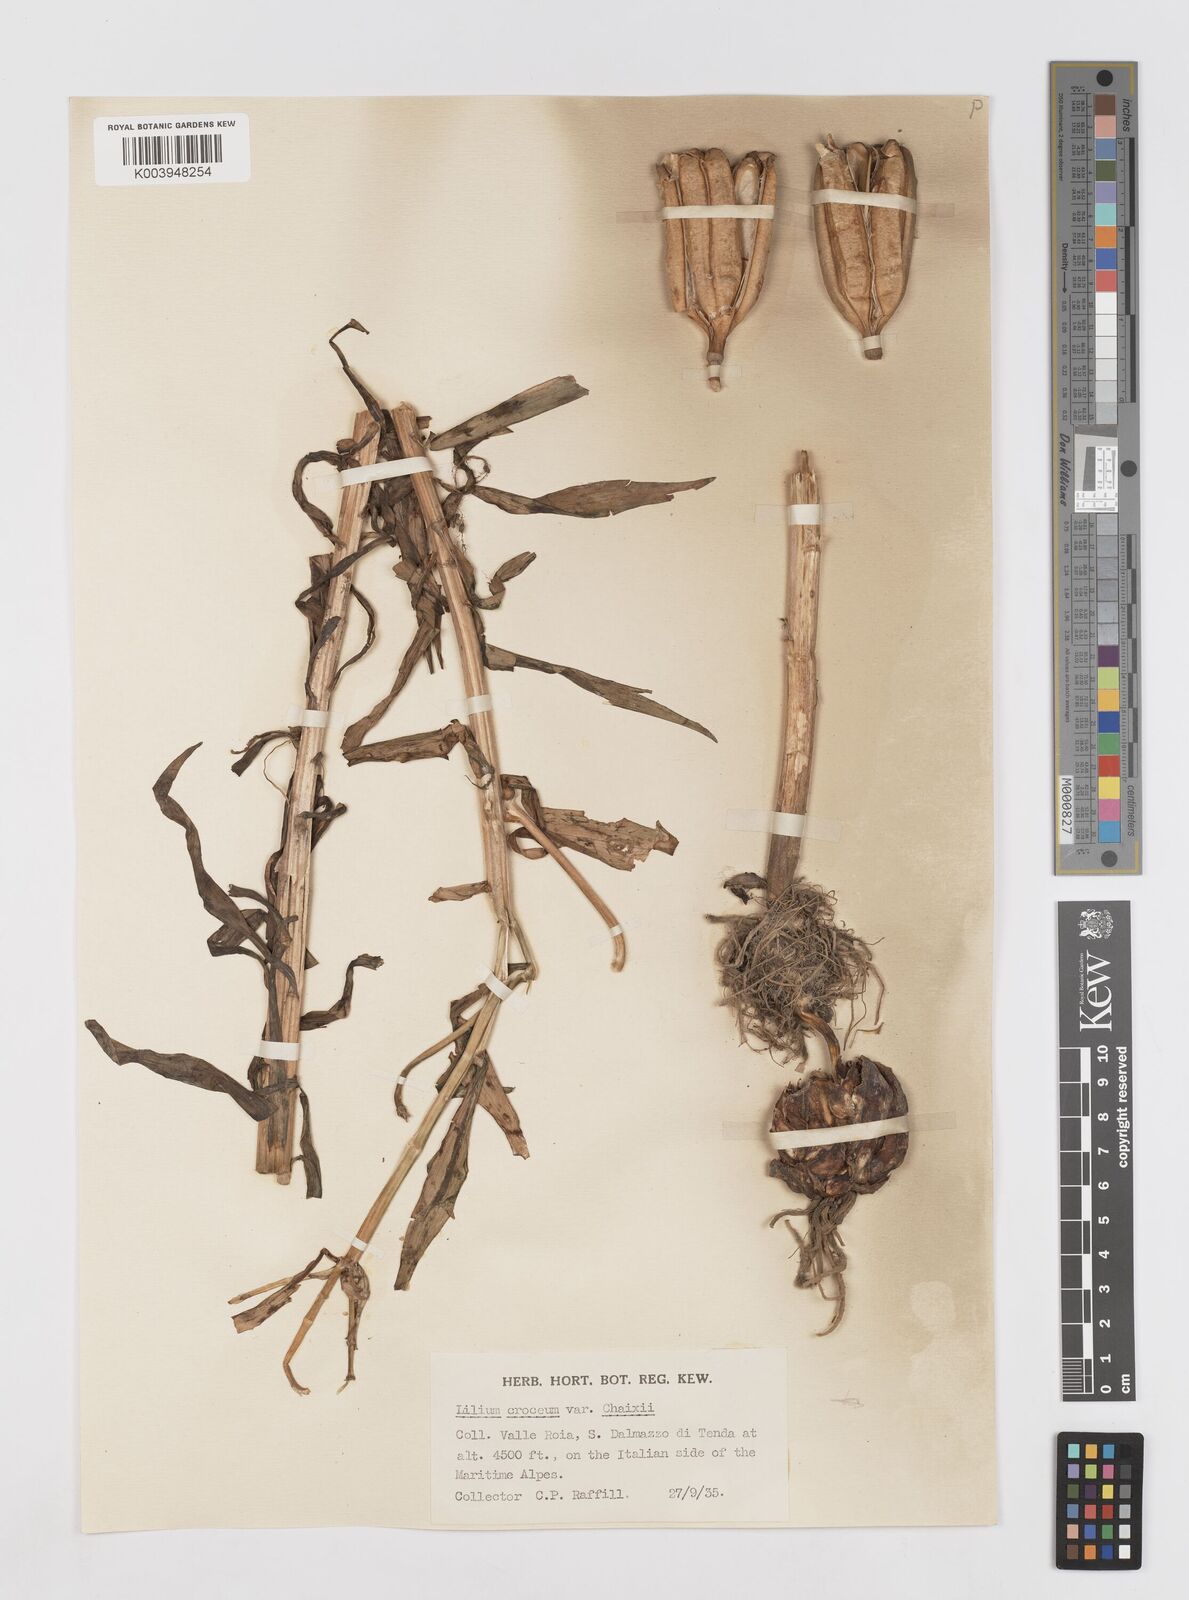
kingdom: Plantae
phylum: Tracheophyta
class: Liliopsida
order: Liliales
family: Liliaceae
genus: Lilium
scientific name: Lilium bulbiferum
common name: Orange lily
